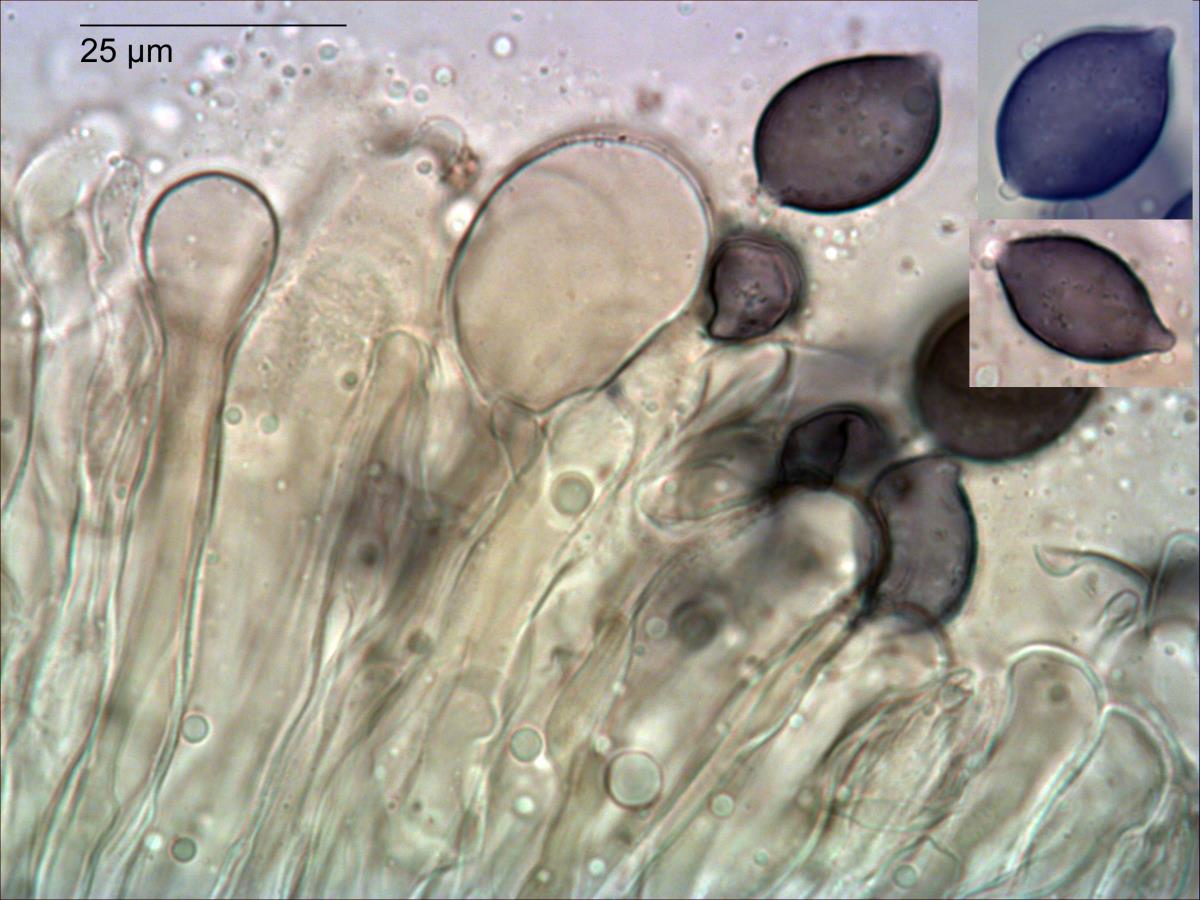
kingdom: Fungi
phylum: Basidiomycota
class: Agaricomycetes
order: Russulales
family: Stereaceae
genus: Stereodiscus
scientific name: Stereodiscus limonisporus
